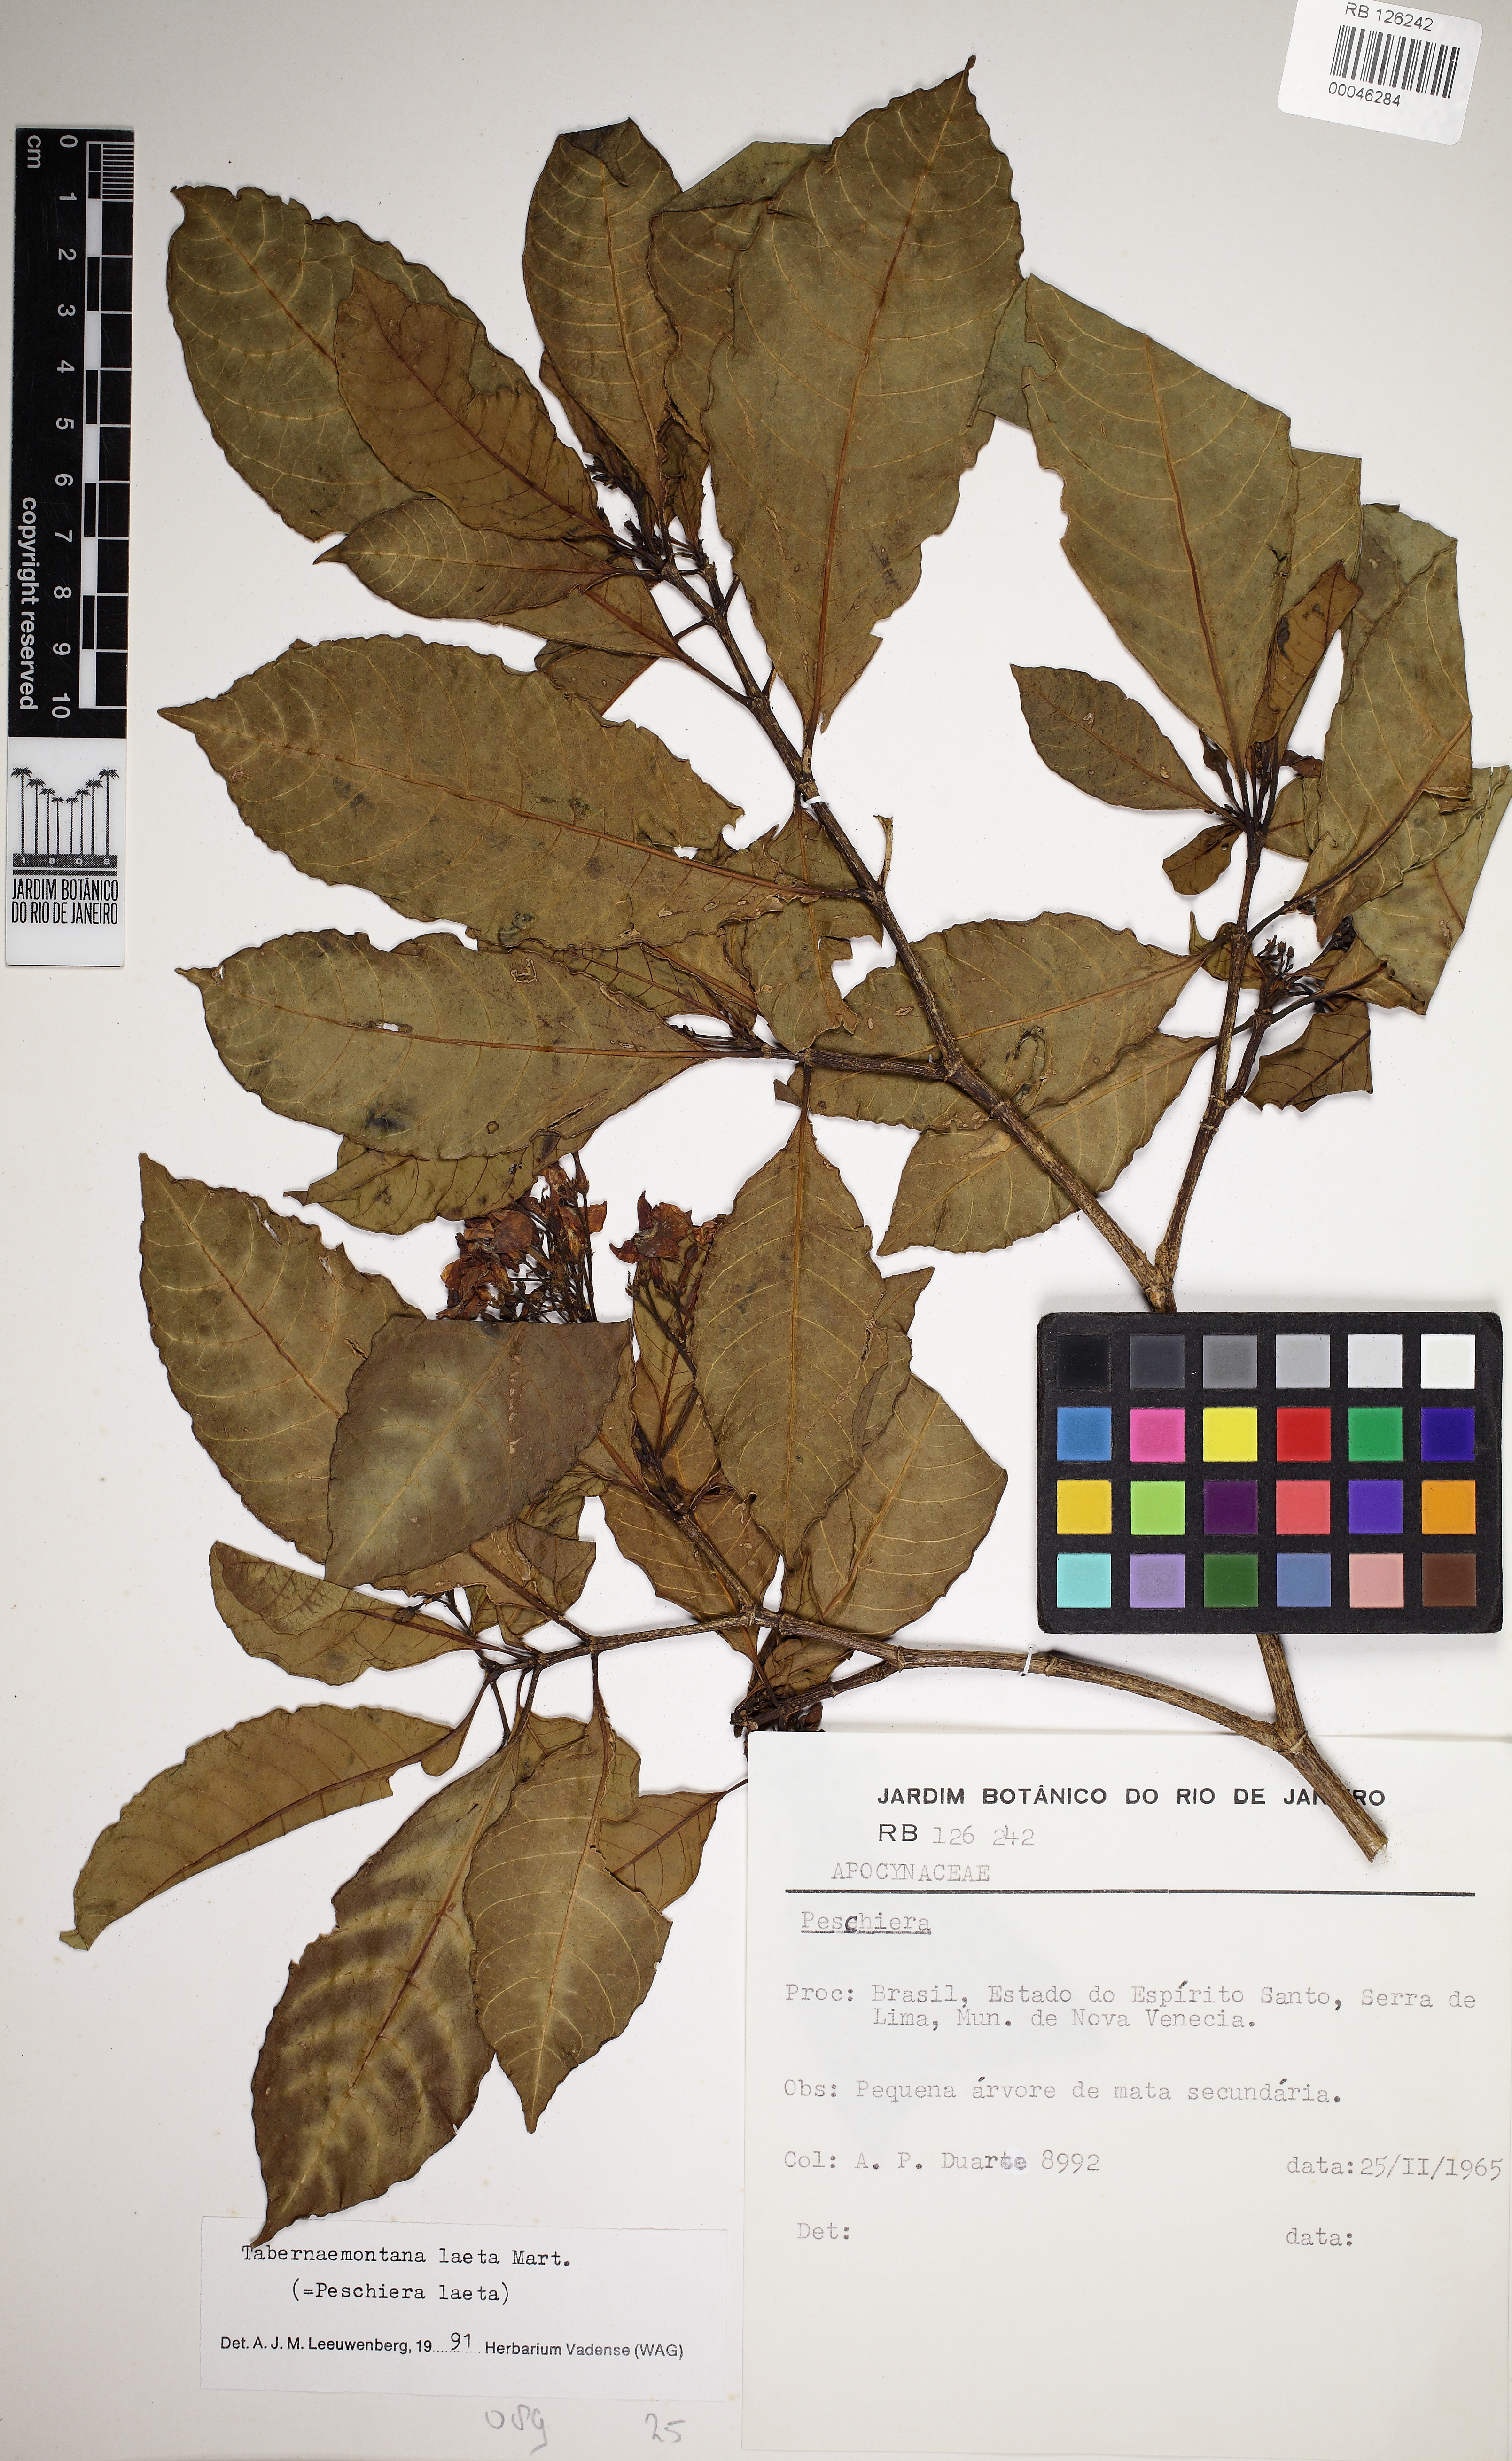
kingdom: Plantae
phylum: Tracheophyta
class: Magnoliopsida
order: Gentianales
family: Apocynaceae
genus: Tabernaemontana
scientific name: Tabernaemontana
